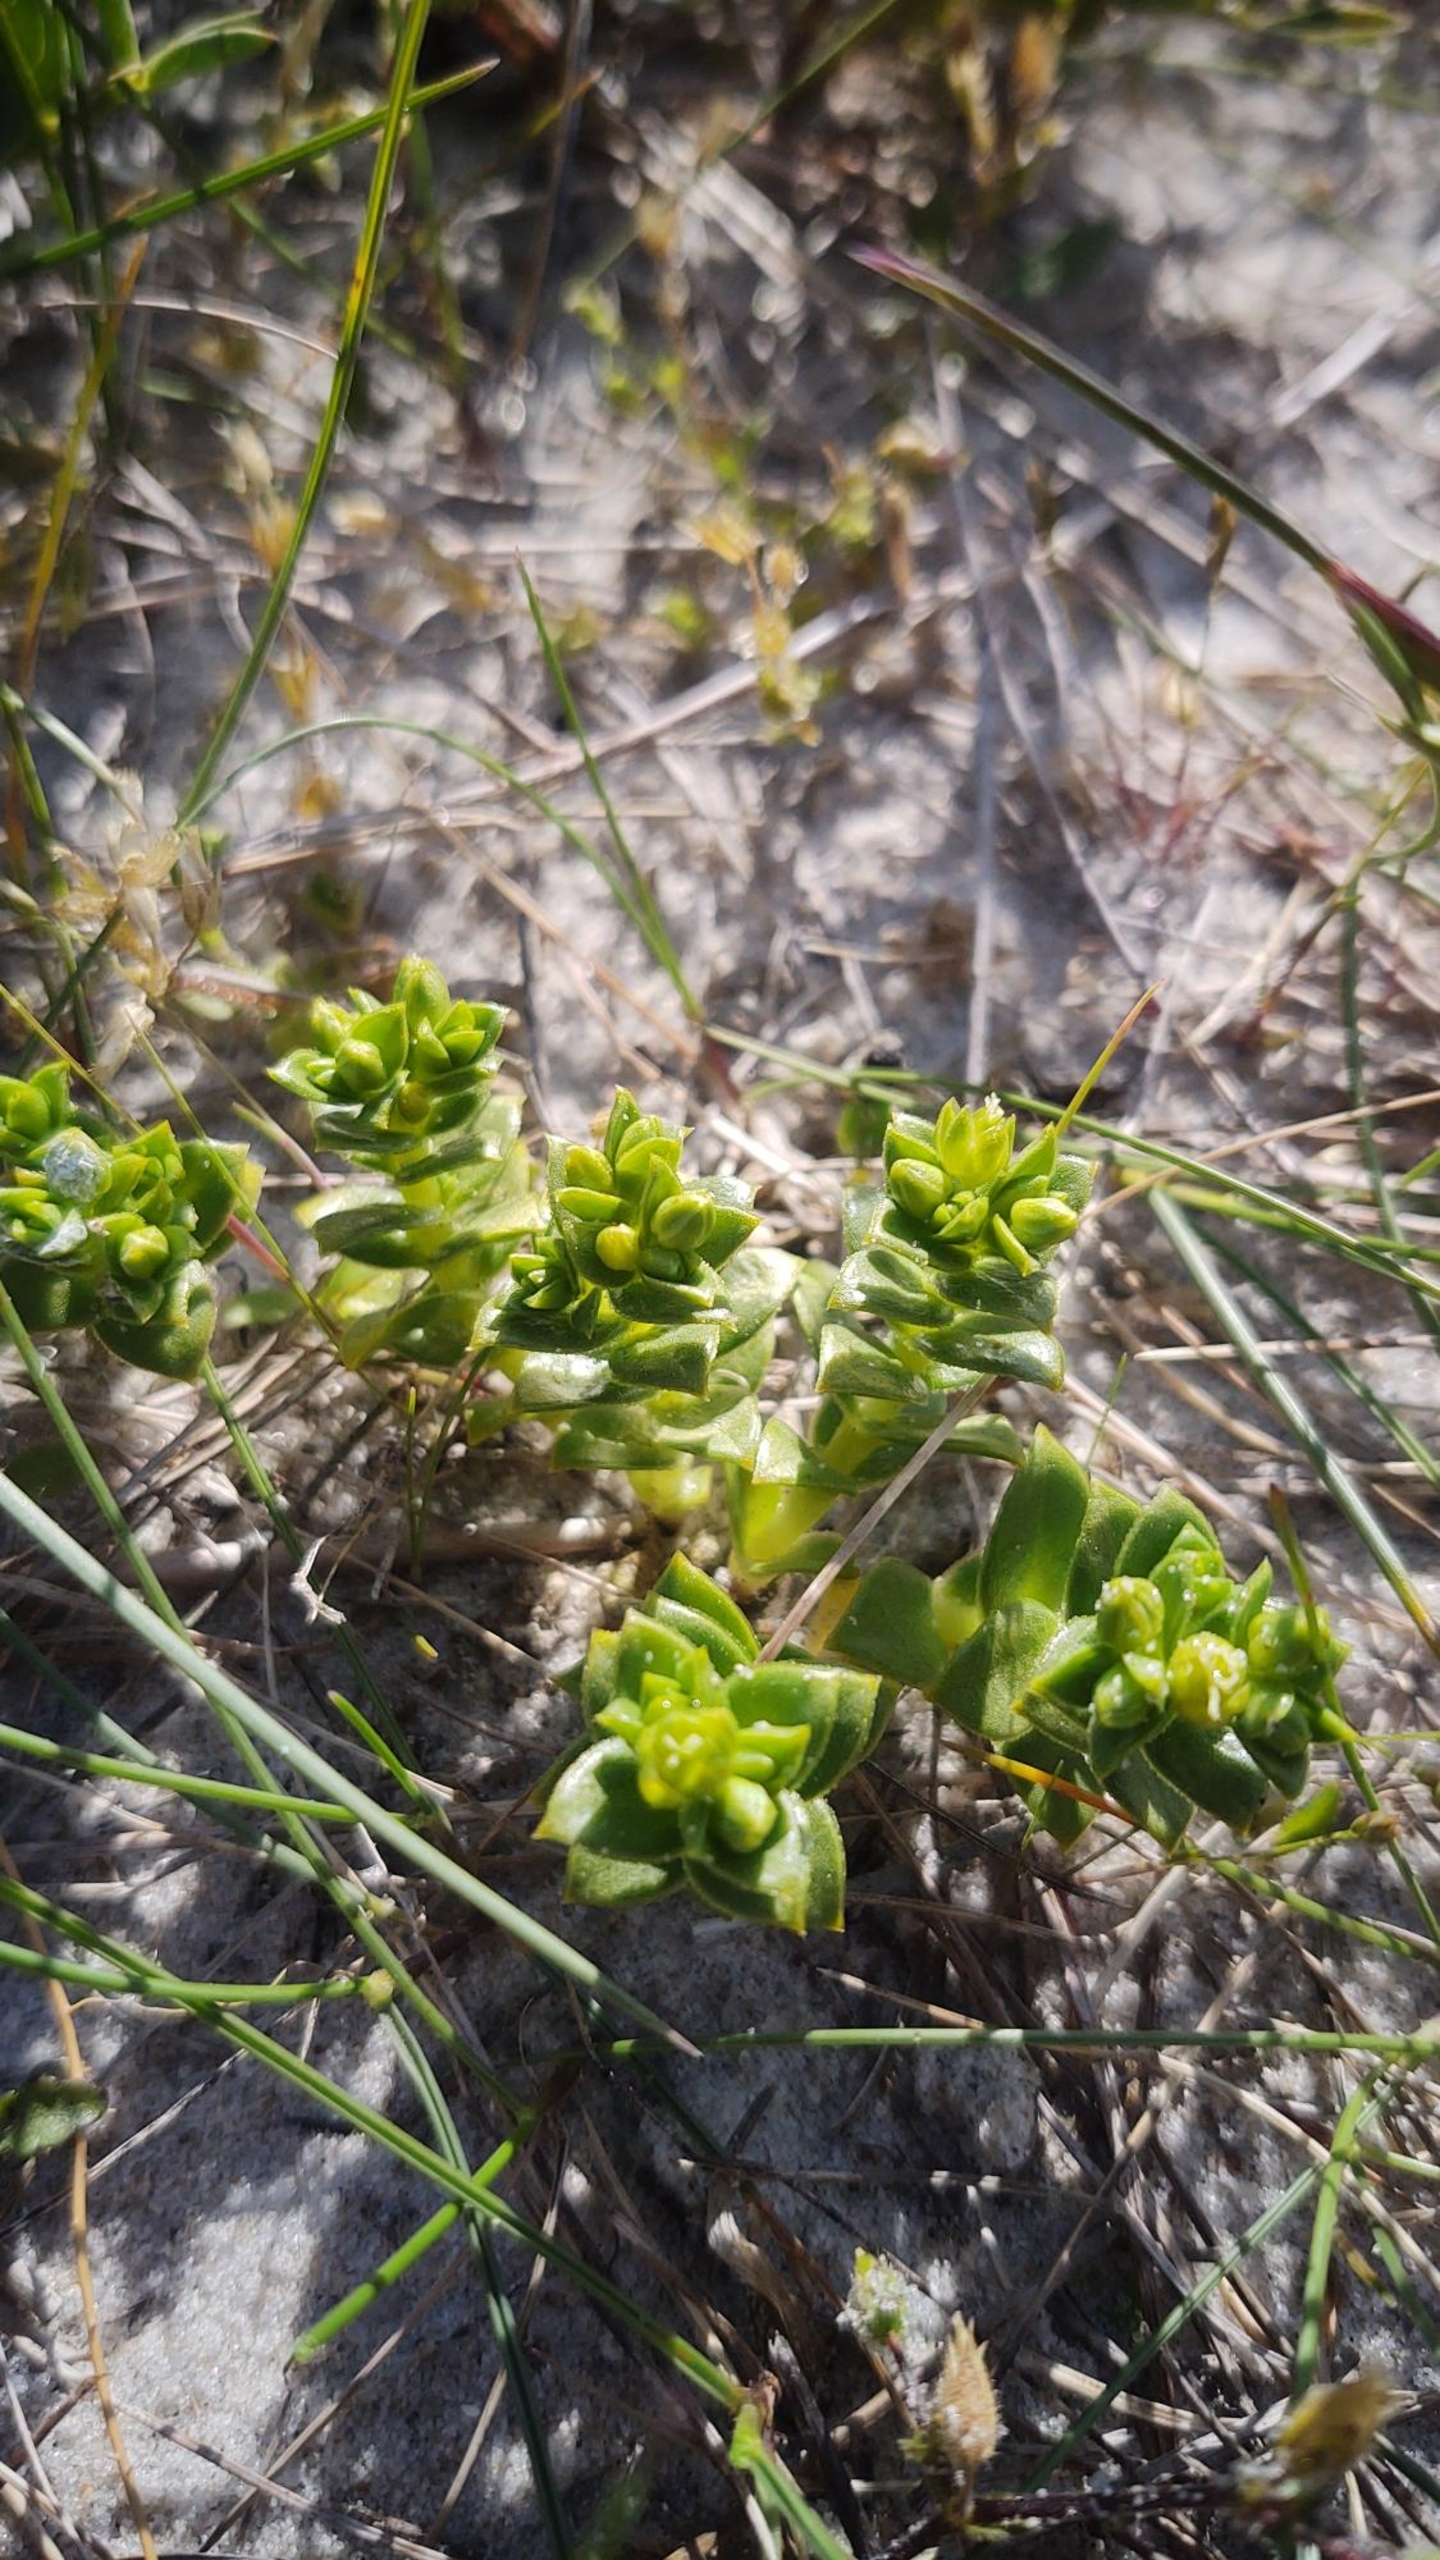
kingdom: Plantae
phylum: Tracheophyta
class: Magnoliopsida
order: Caryophyllales
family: Caryophyllaceae
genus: Honckenya
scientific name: Honckenya peploides
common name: Strandarve
